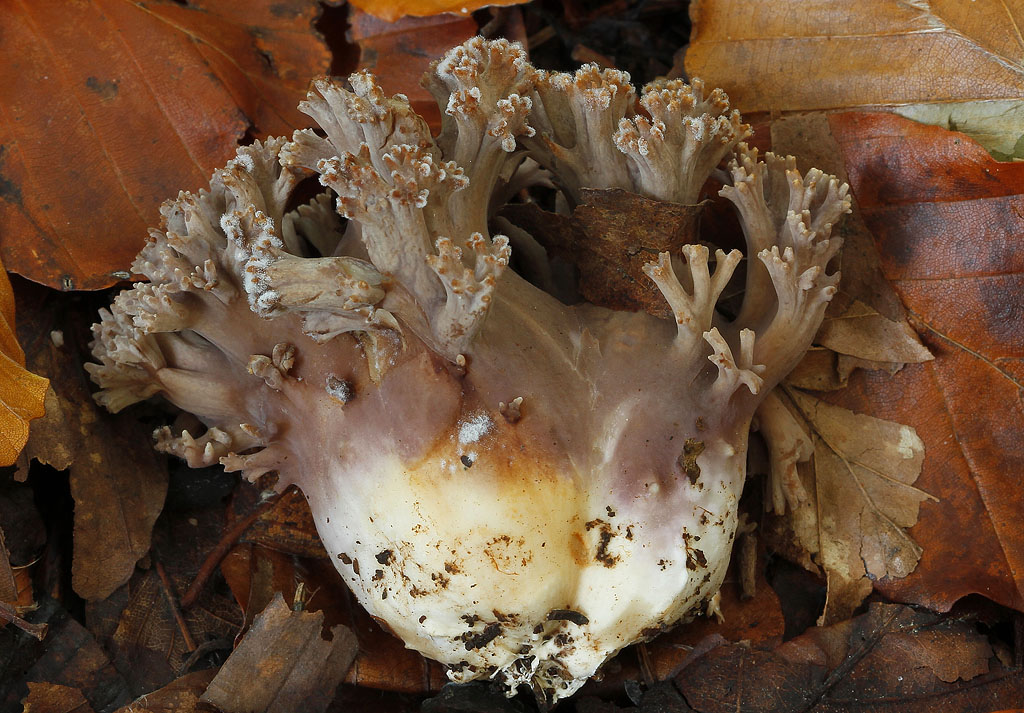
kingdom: Fungi
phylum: Basidiomycota
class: Agaricomycetes
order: Gomphales
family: Gomphaceae
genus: Ramaria
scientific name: Ramaria fumigata
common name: violet koralsvamp
